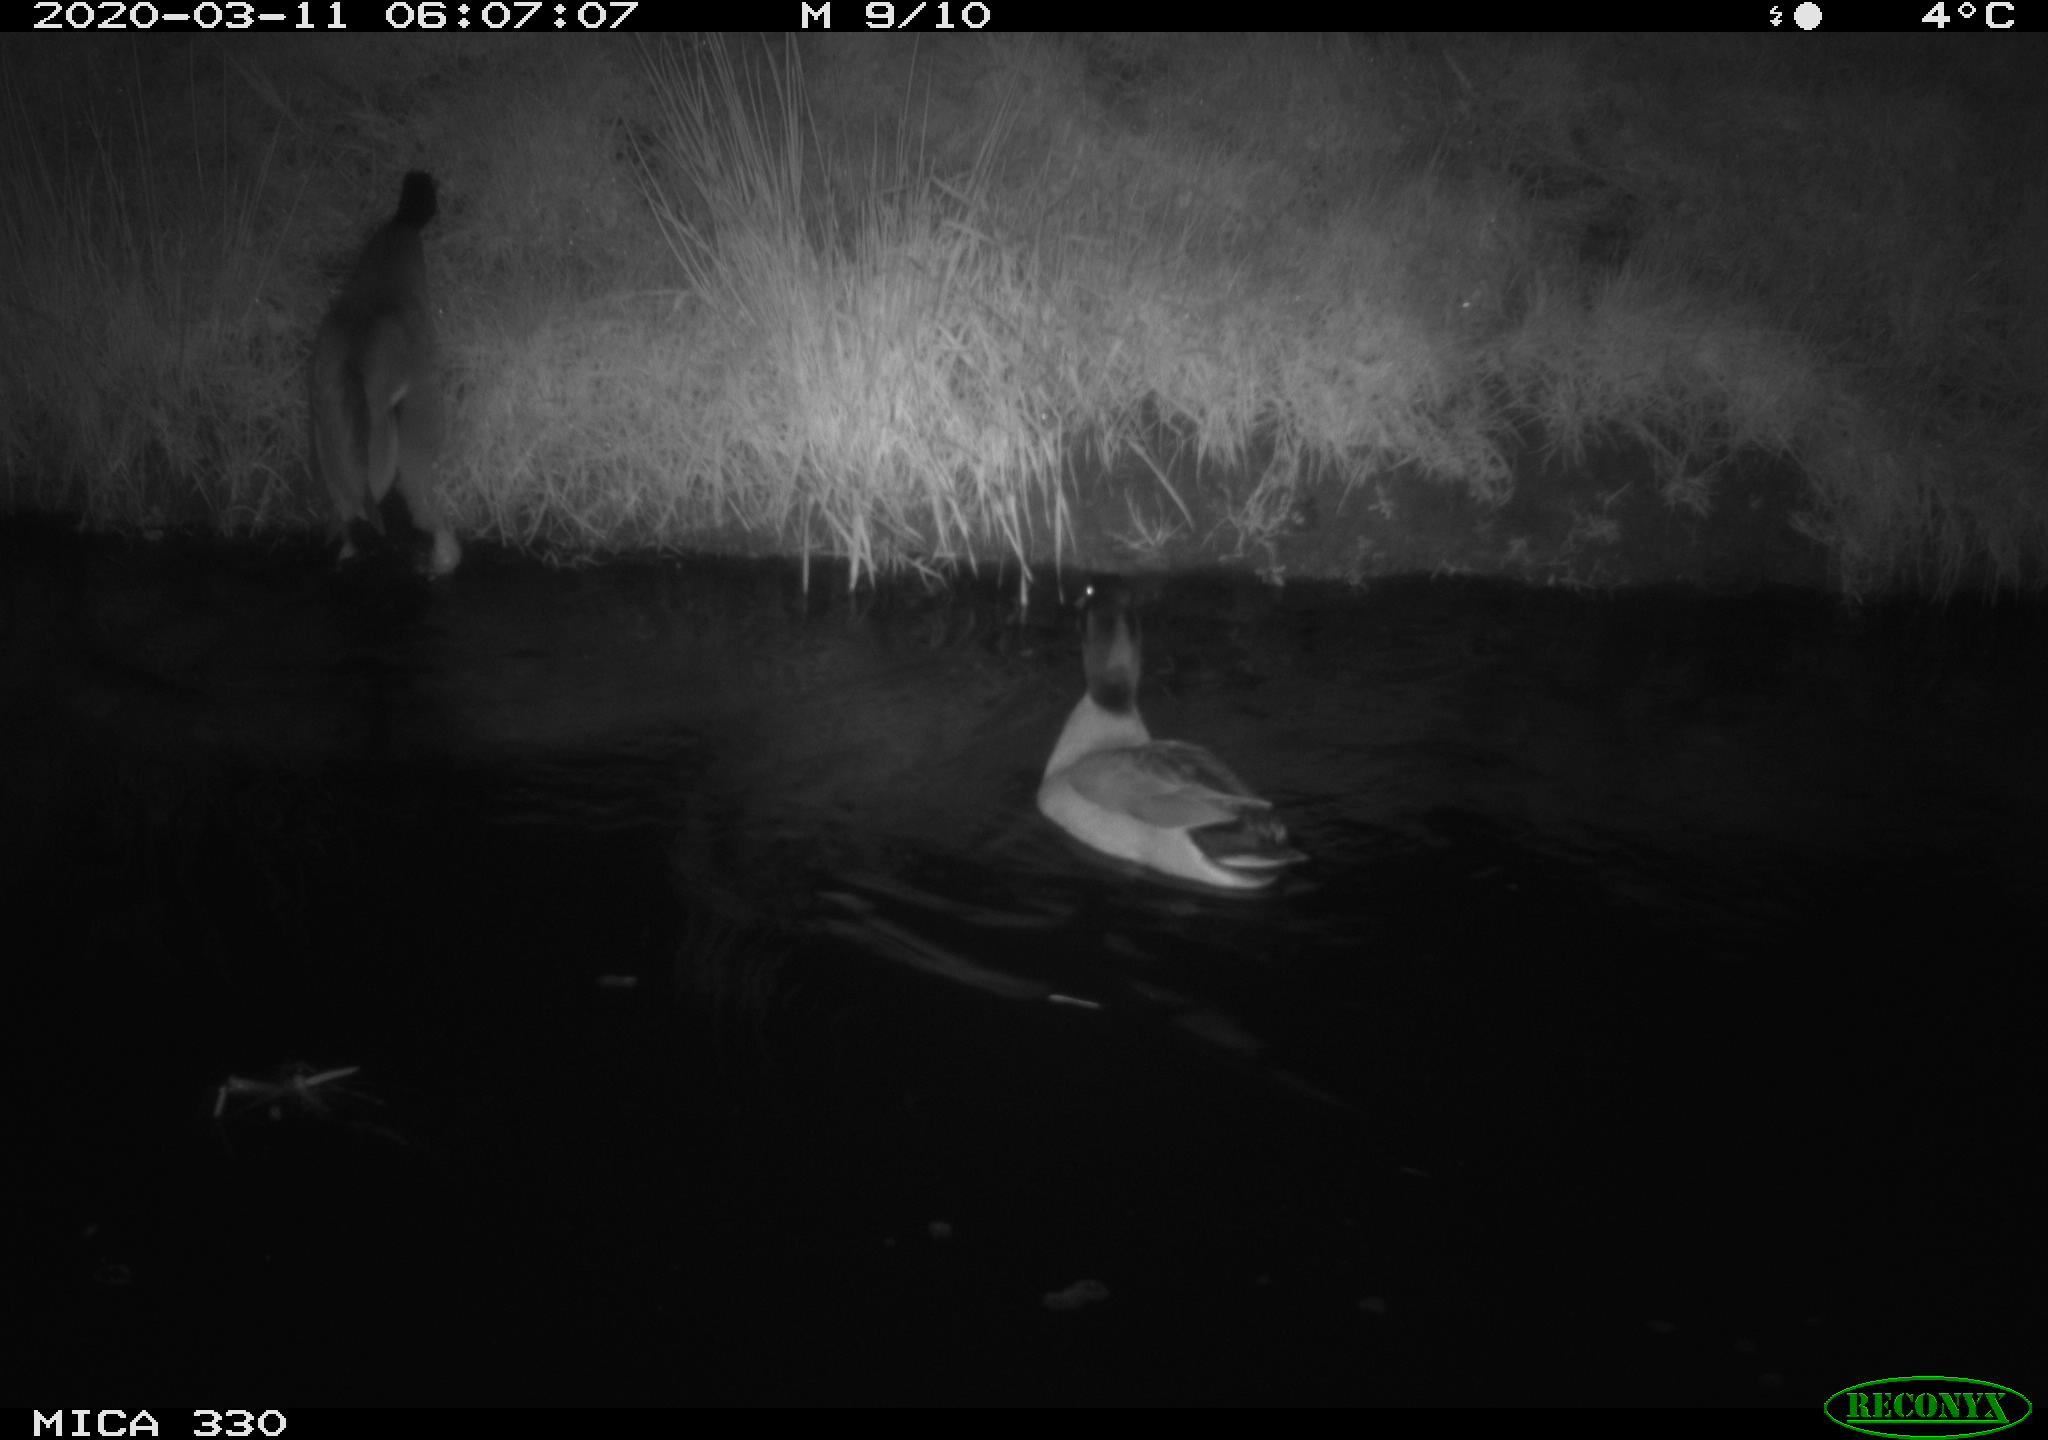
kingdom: Animalia
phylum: Chordata
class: Aves
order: Anseriformes
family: Anatidae
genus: Anas
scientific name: Anas platyrhynchos
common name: Mallard
